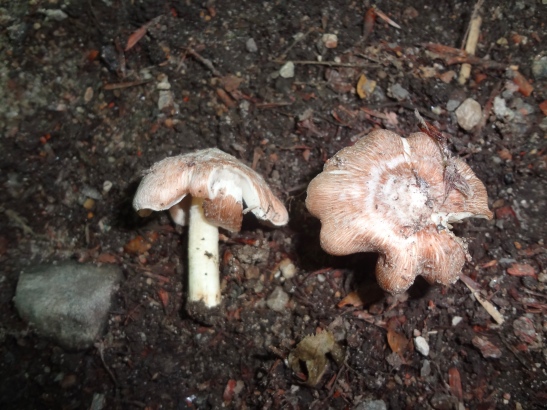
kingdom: Fungi
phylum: Basidiomycota
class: Agaricomycetes
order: Agaricales
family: Inocybaceae
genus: Inosperma
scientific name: Inosperma
